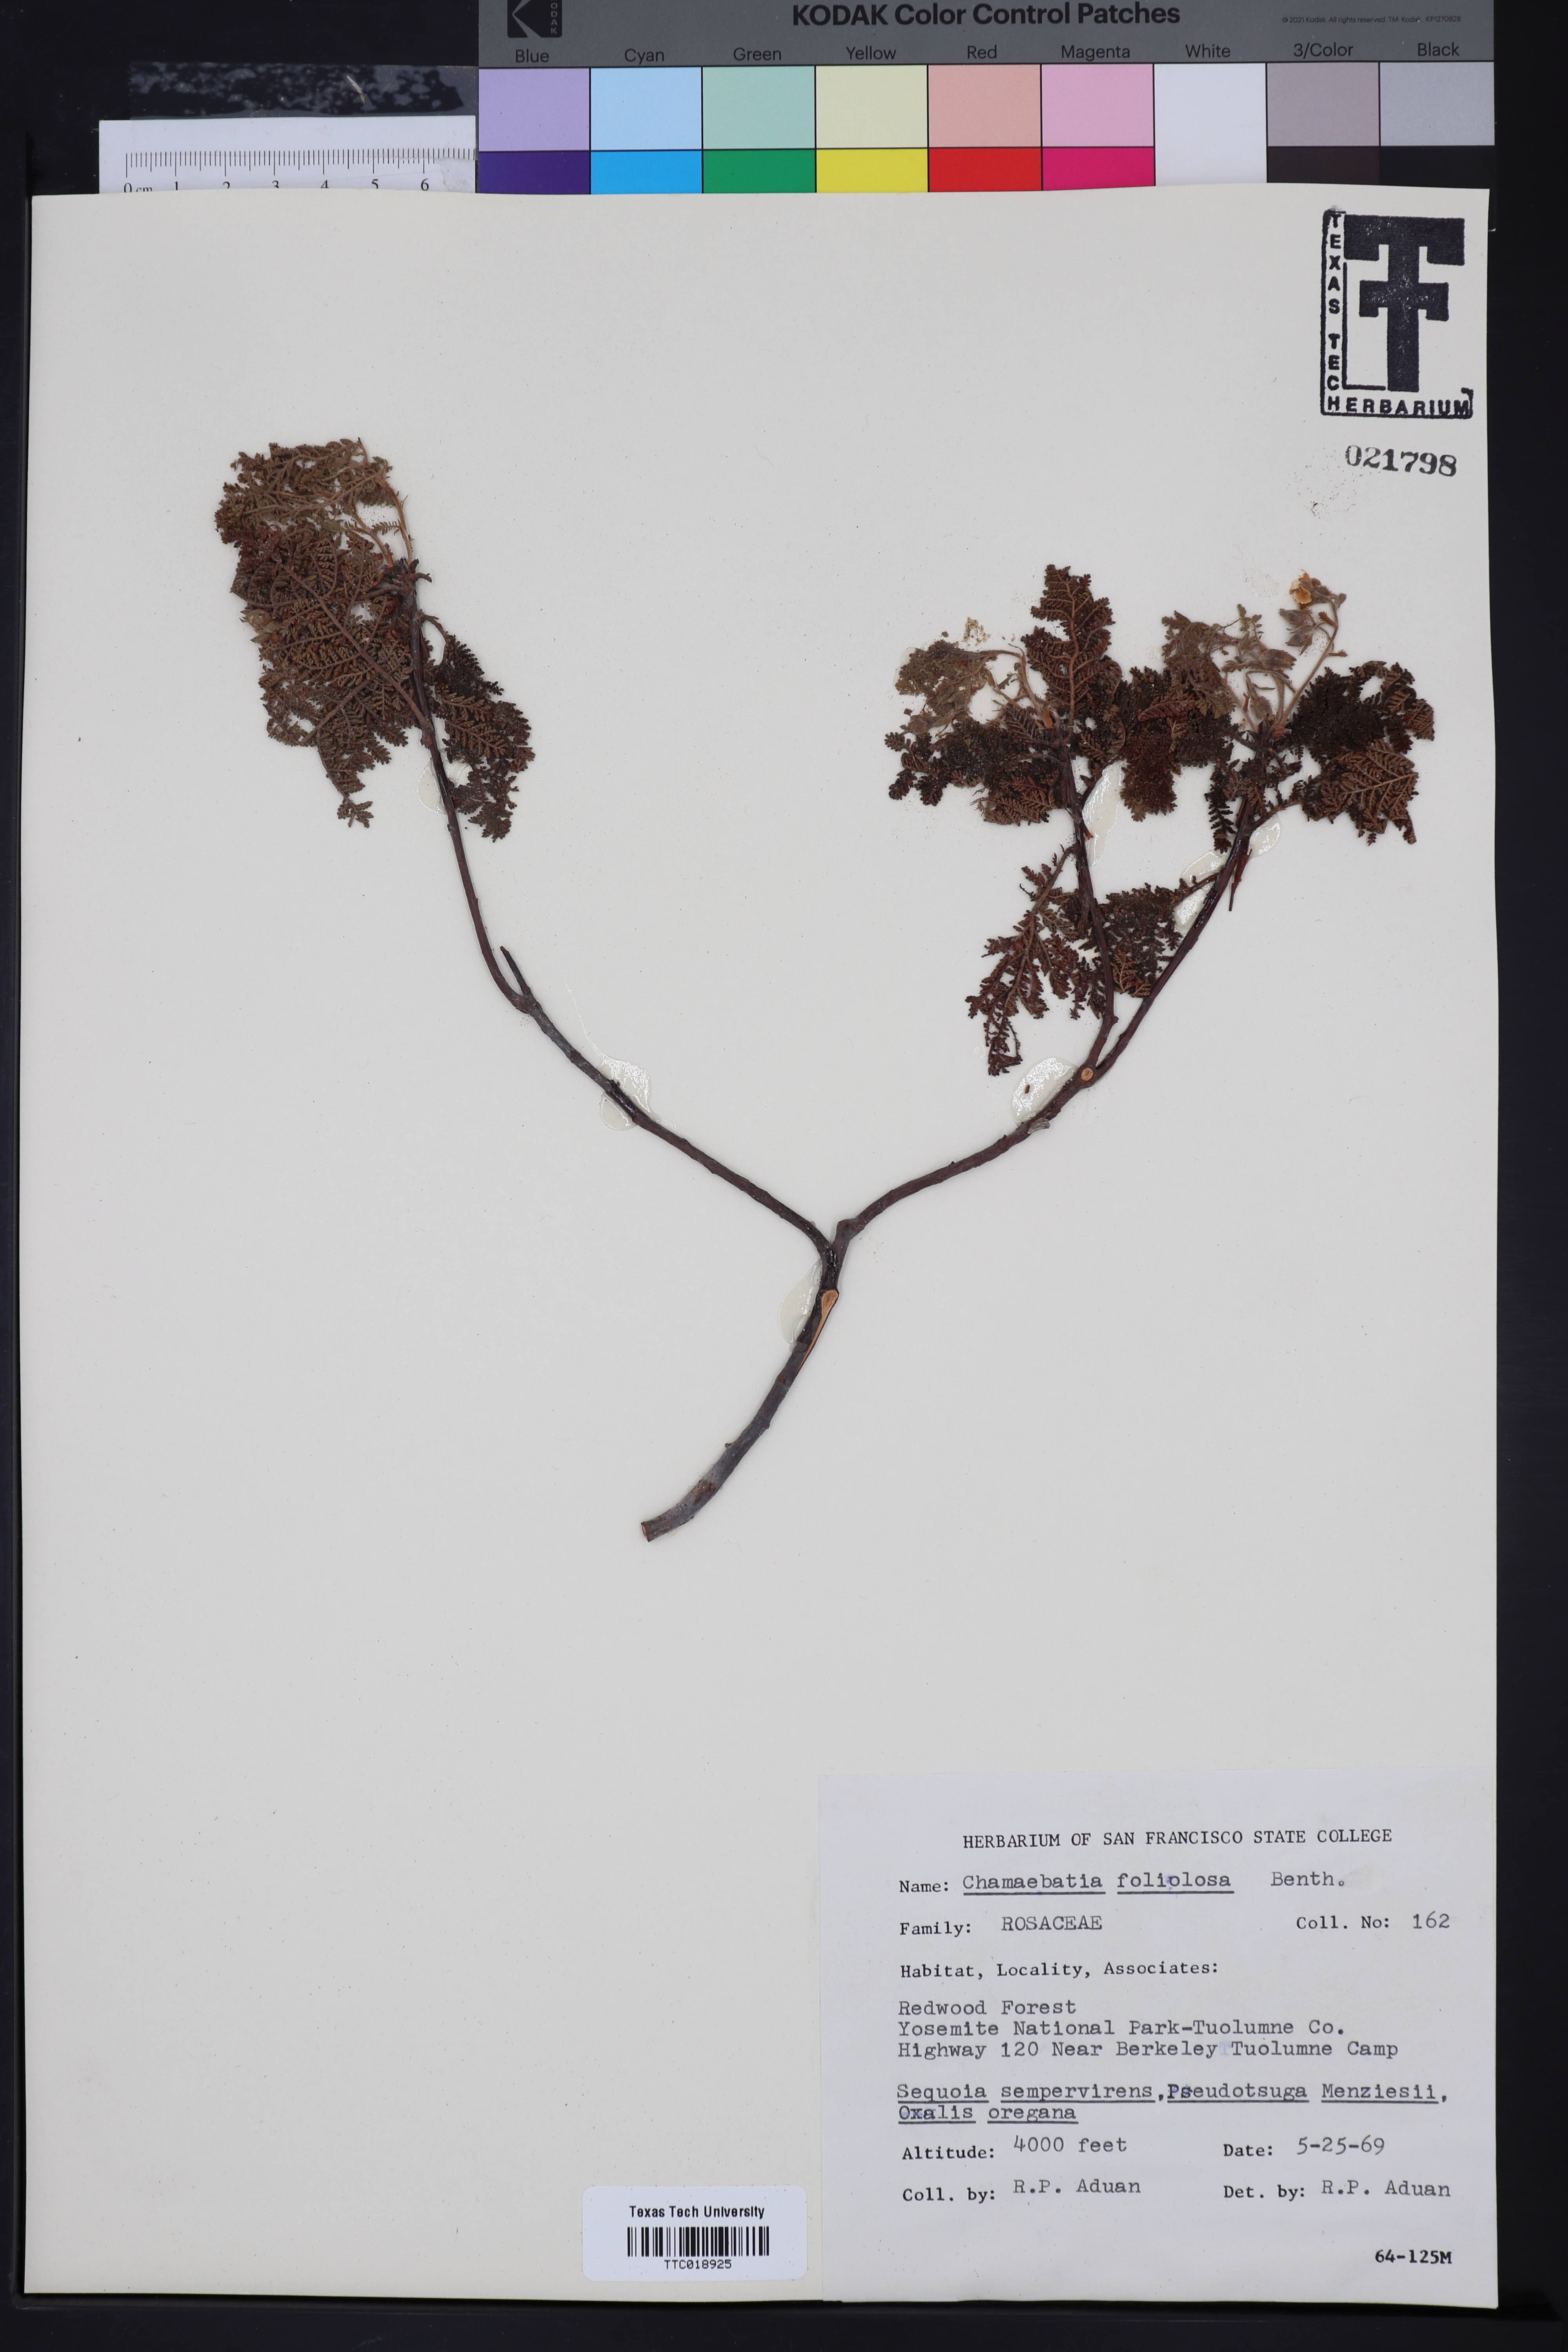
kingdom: Plantae
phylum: Tracheophyta
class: Magnoliopsida
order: Rosales
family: Rosaceae
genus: Chamaebatia
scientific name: Chamaebatia foliolosa
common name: Mountain misery
